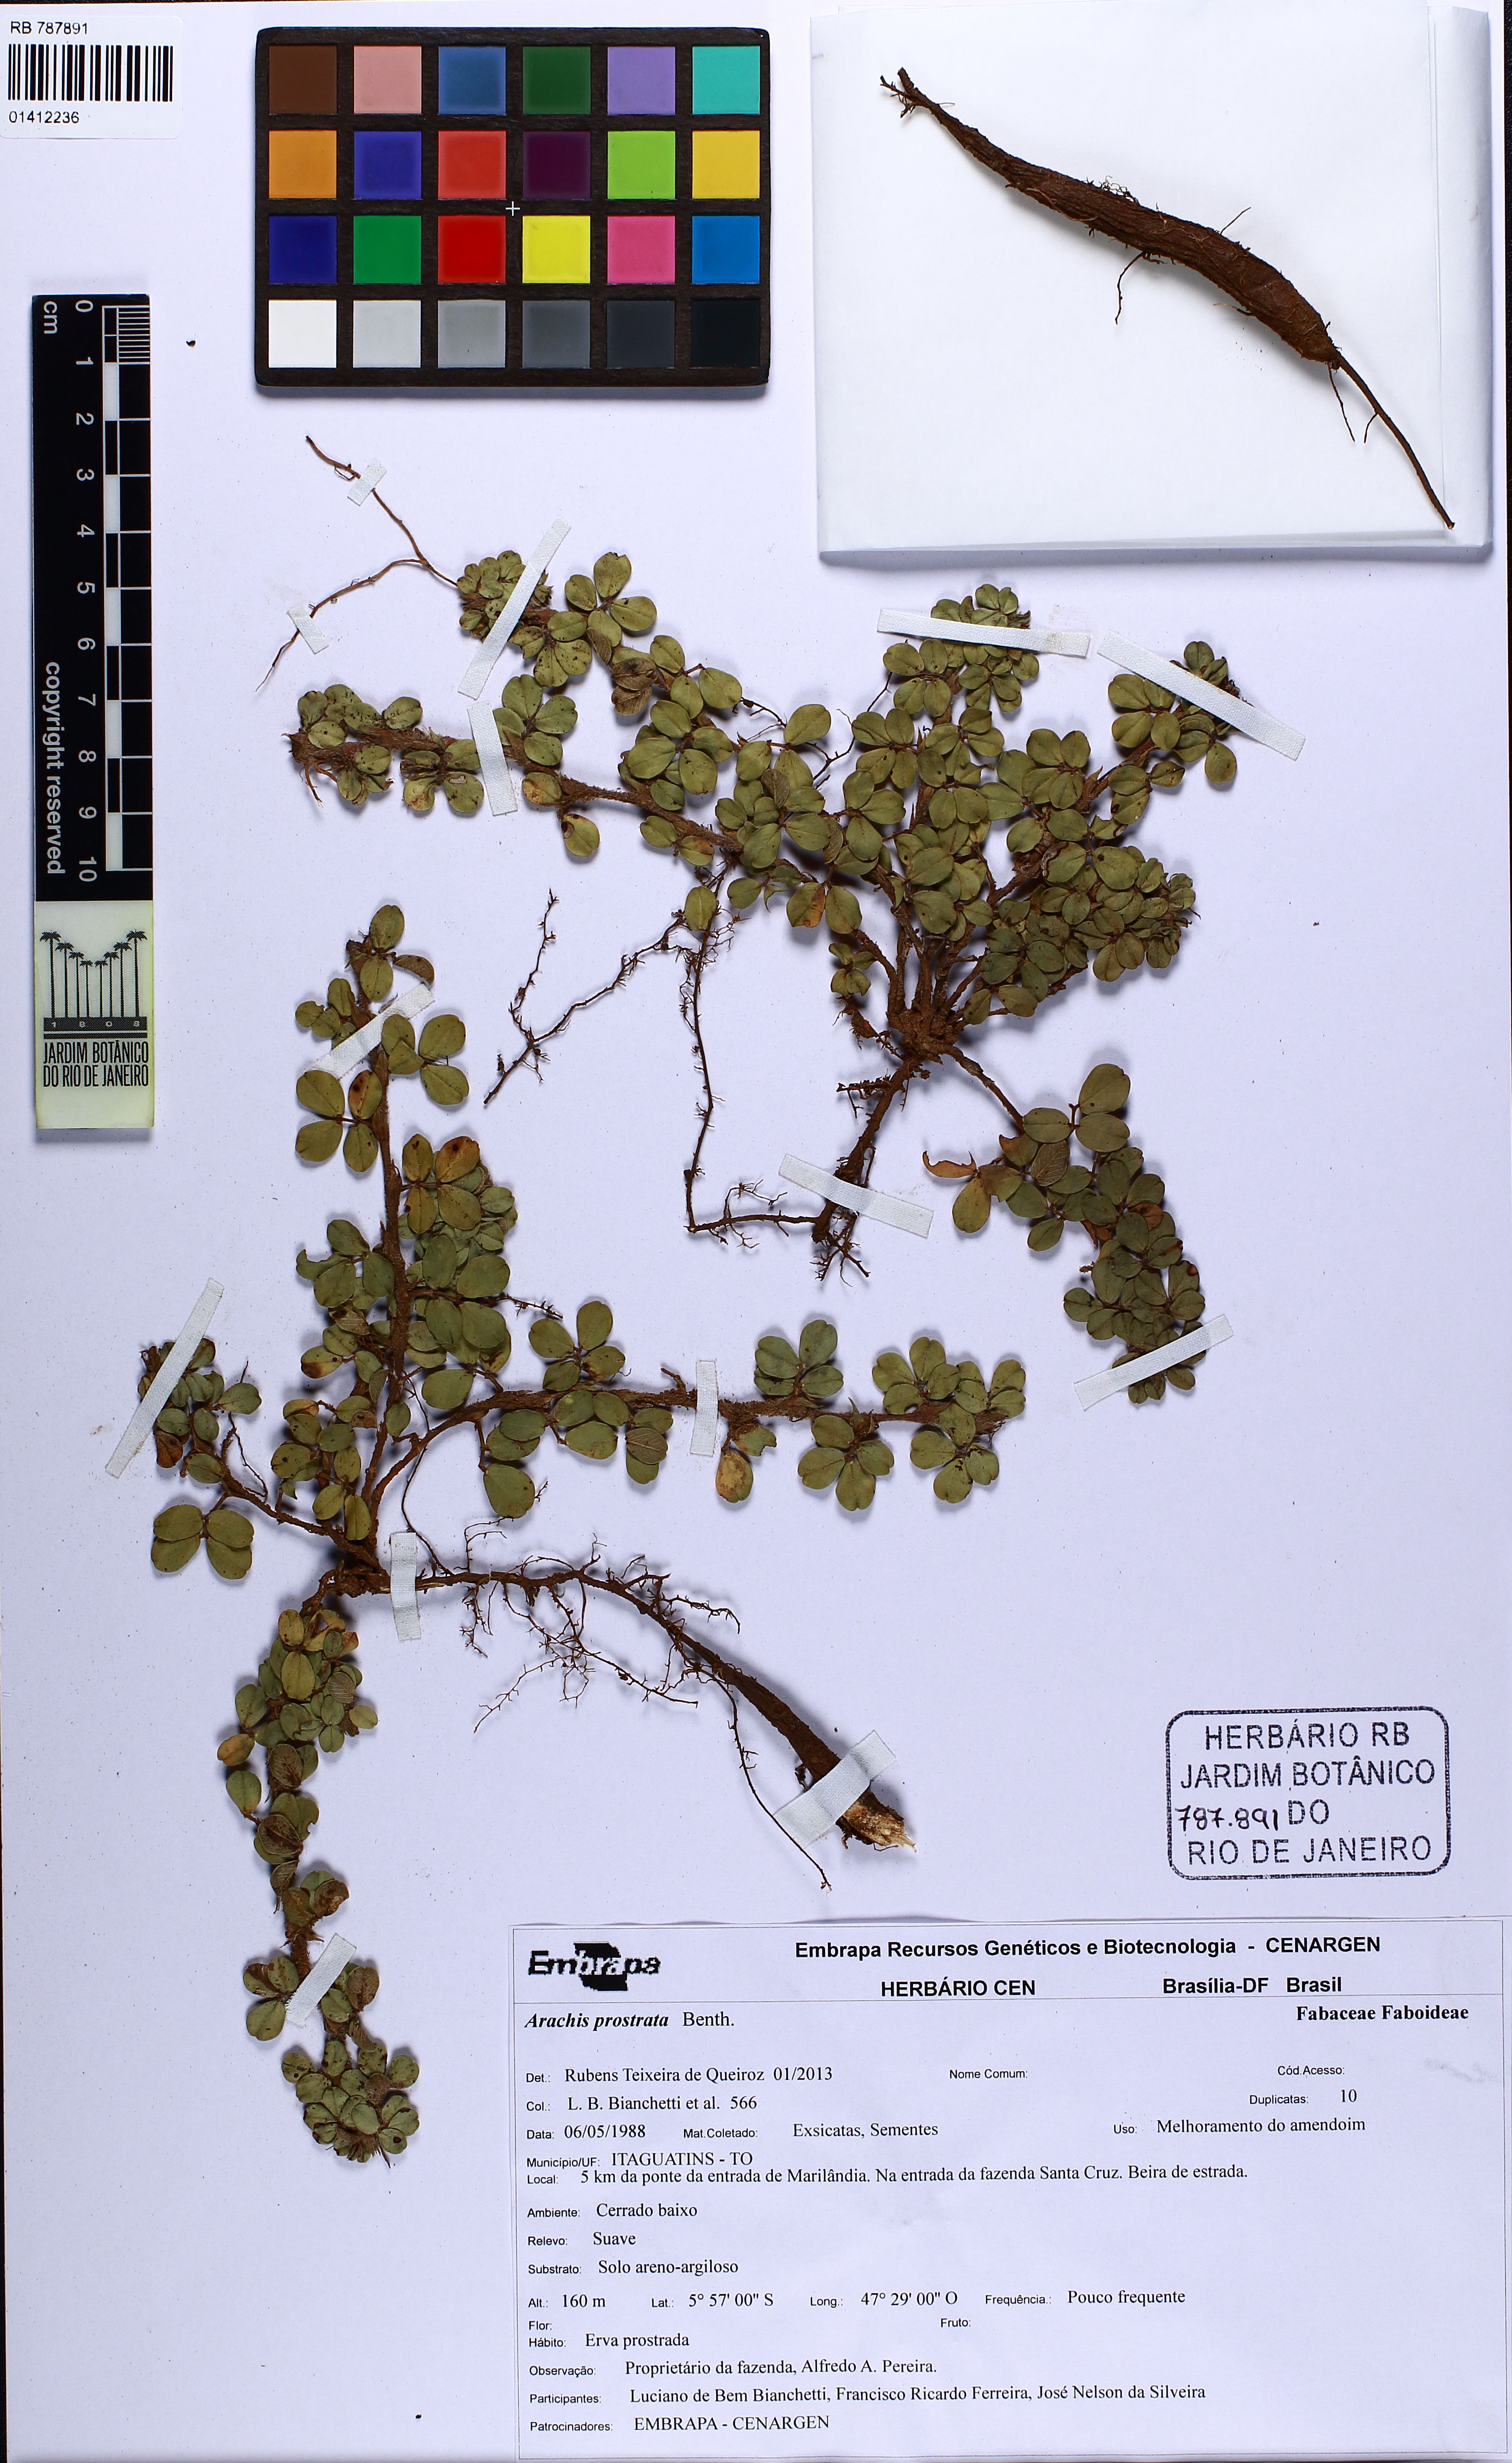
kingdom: Plantae
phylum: Tracheophyta
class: Magnoliopsida
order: Fabales
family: Fabaceae
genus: Arachis
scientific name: Arachis prostrata
